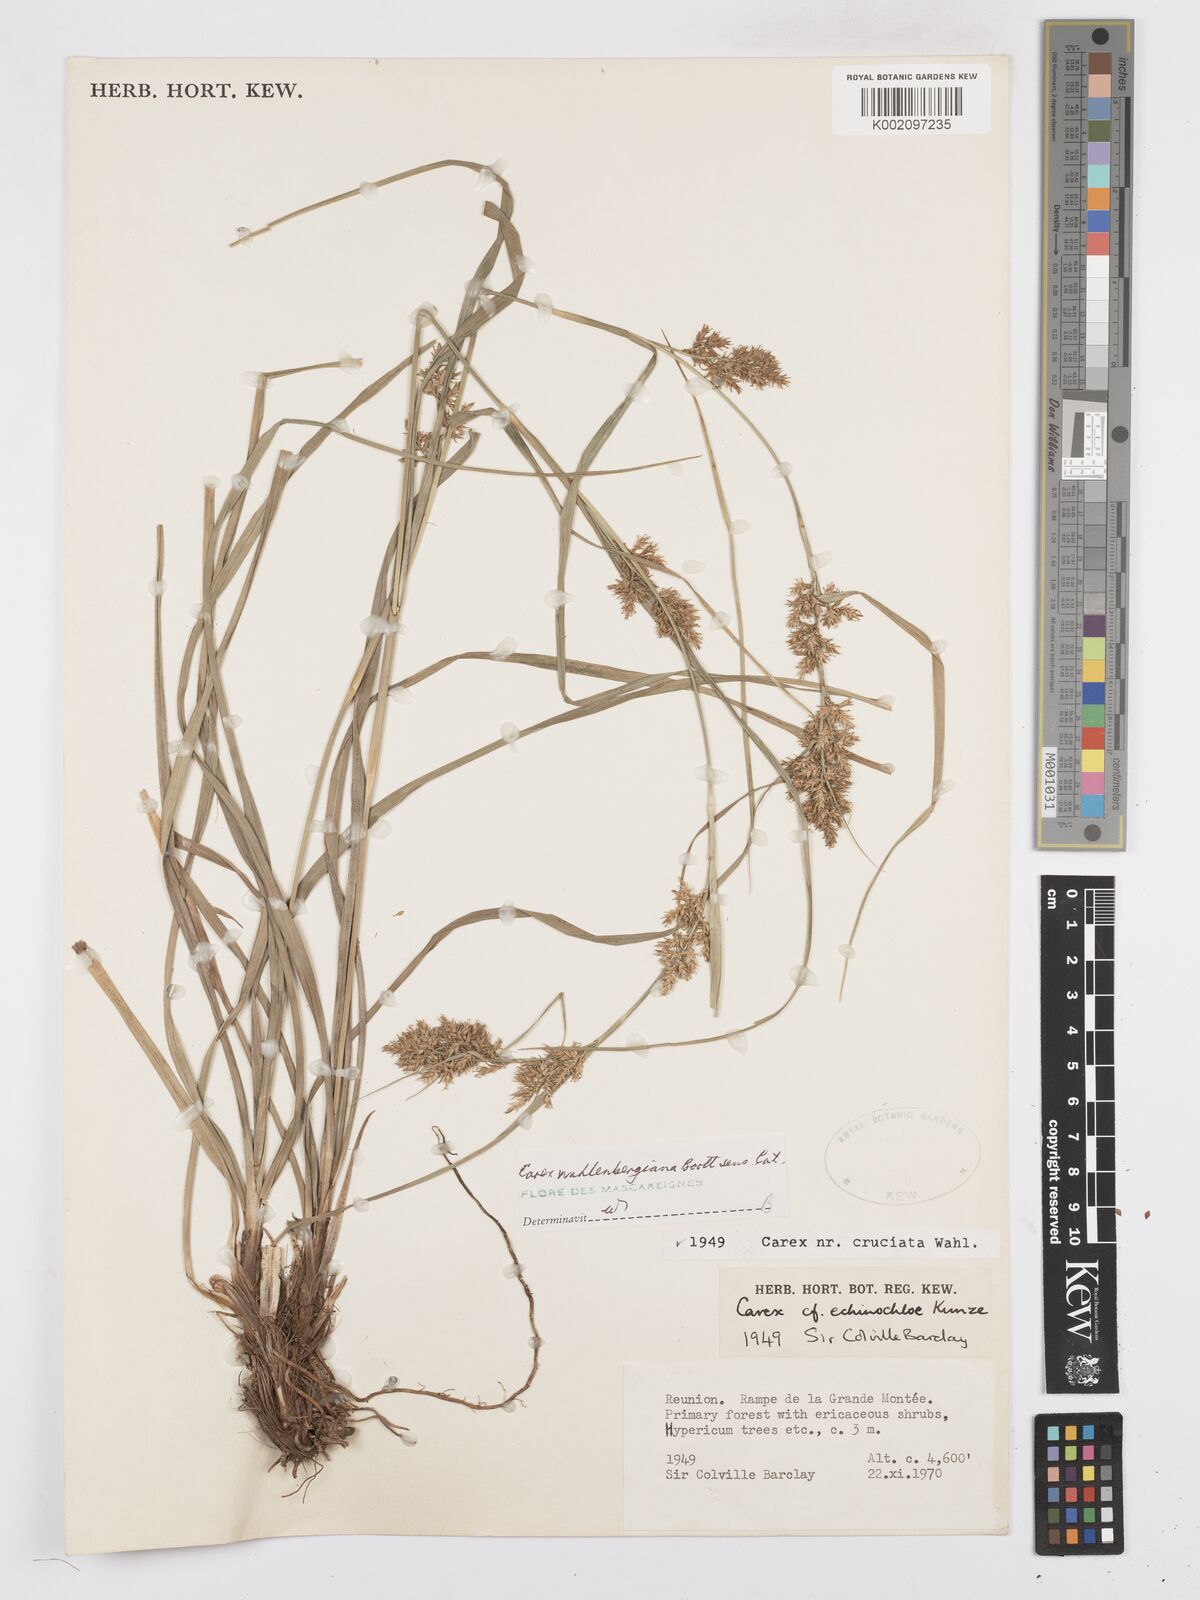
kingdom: Plantae
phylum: Tracheophyta
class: Liliopsida
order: Poales
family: Cyperaceae
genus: Carex
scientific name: Carex wahlenbergiana
